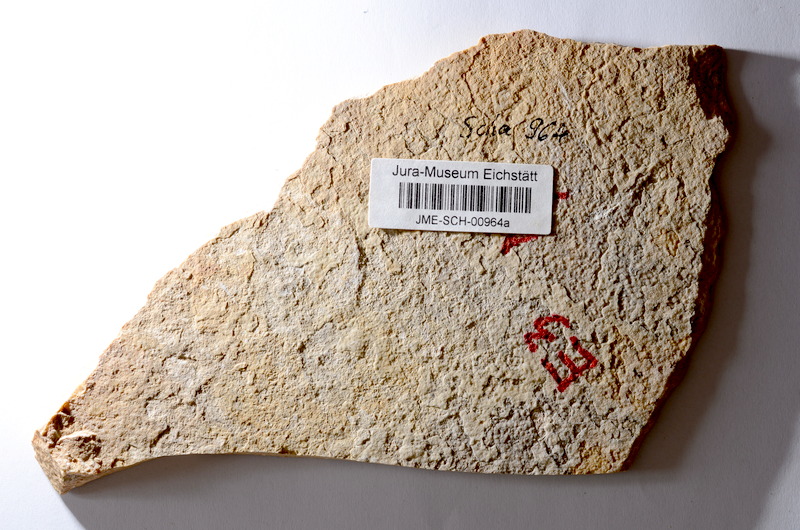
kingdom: Animalia
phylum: Chordata
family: Macrosemiidae
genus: Notagogus
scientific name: Notagogus
